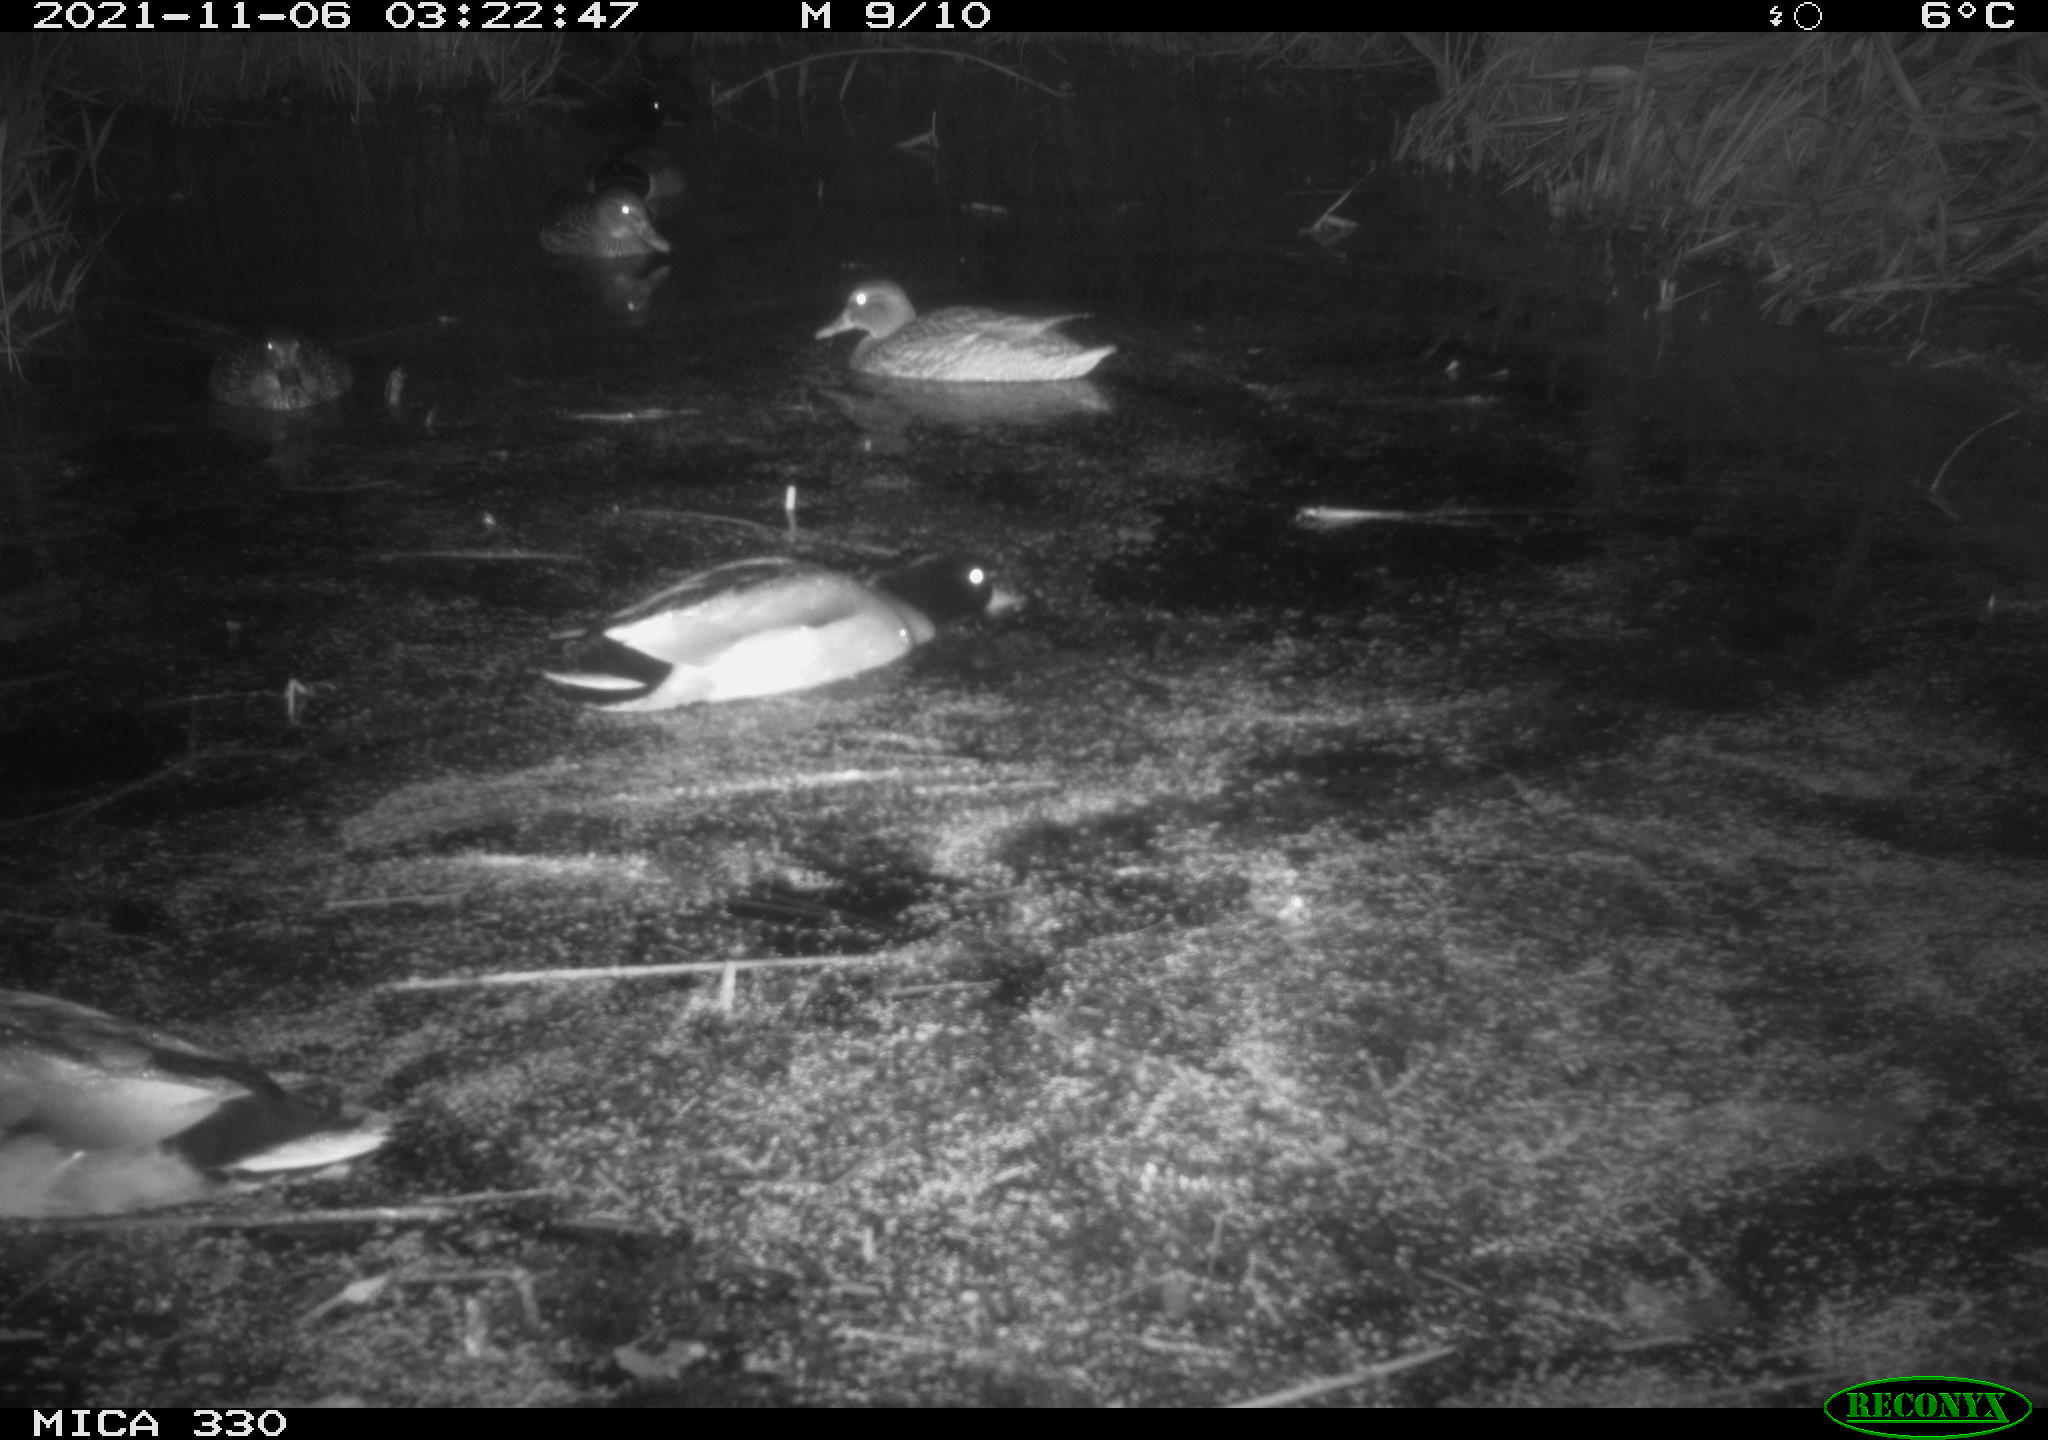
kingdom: Animalia
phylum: Chordata
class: Aves
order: Anseriformes
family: Anatidae
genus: Anas
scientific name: Anas platyrhynchos
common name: Mallard
